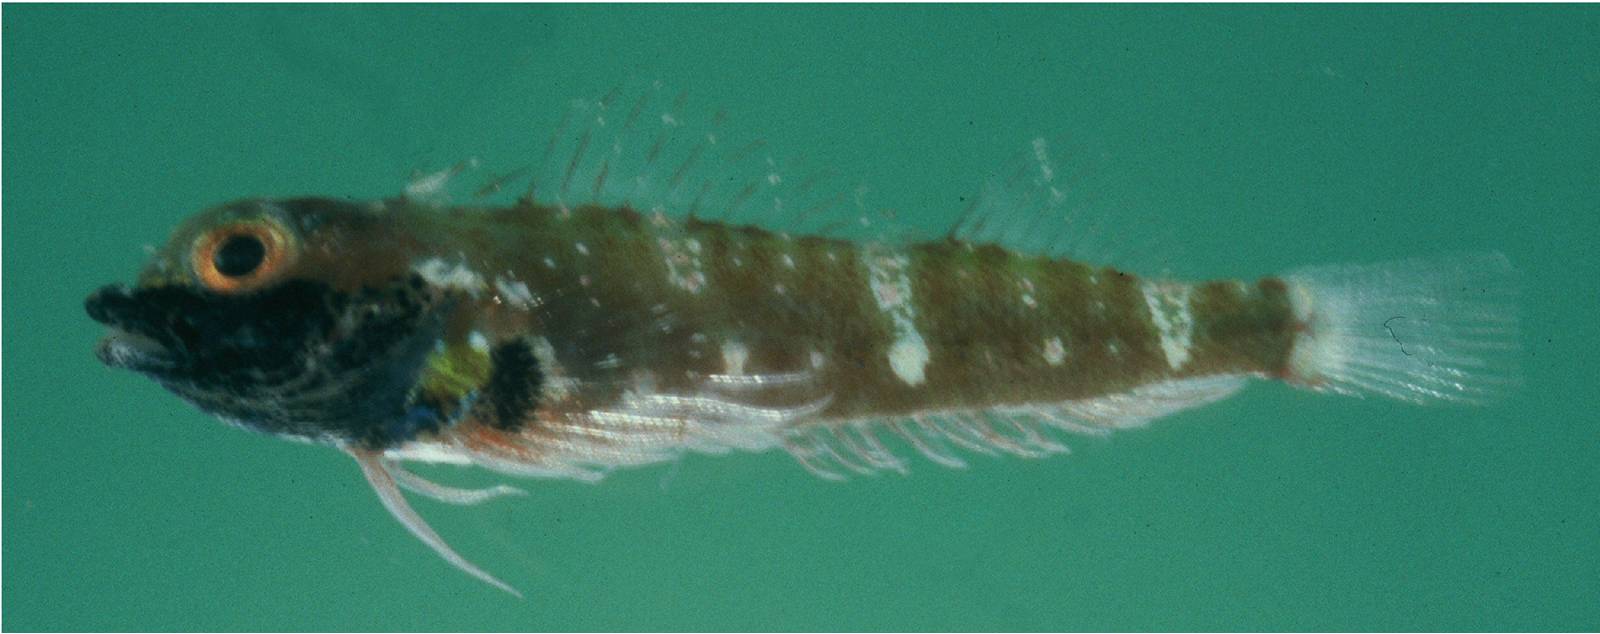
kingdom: Animalia
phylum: Chordata
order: Perciformes
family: Tripterygiidae
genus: Helcogramma
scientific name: Helcogramma ememes
